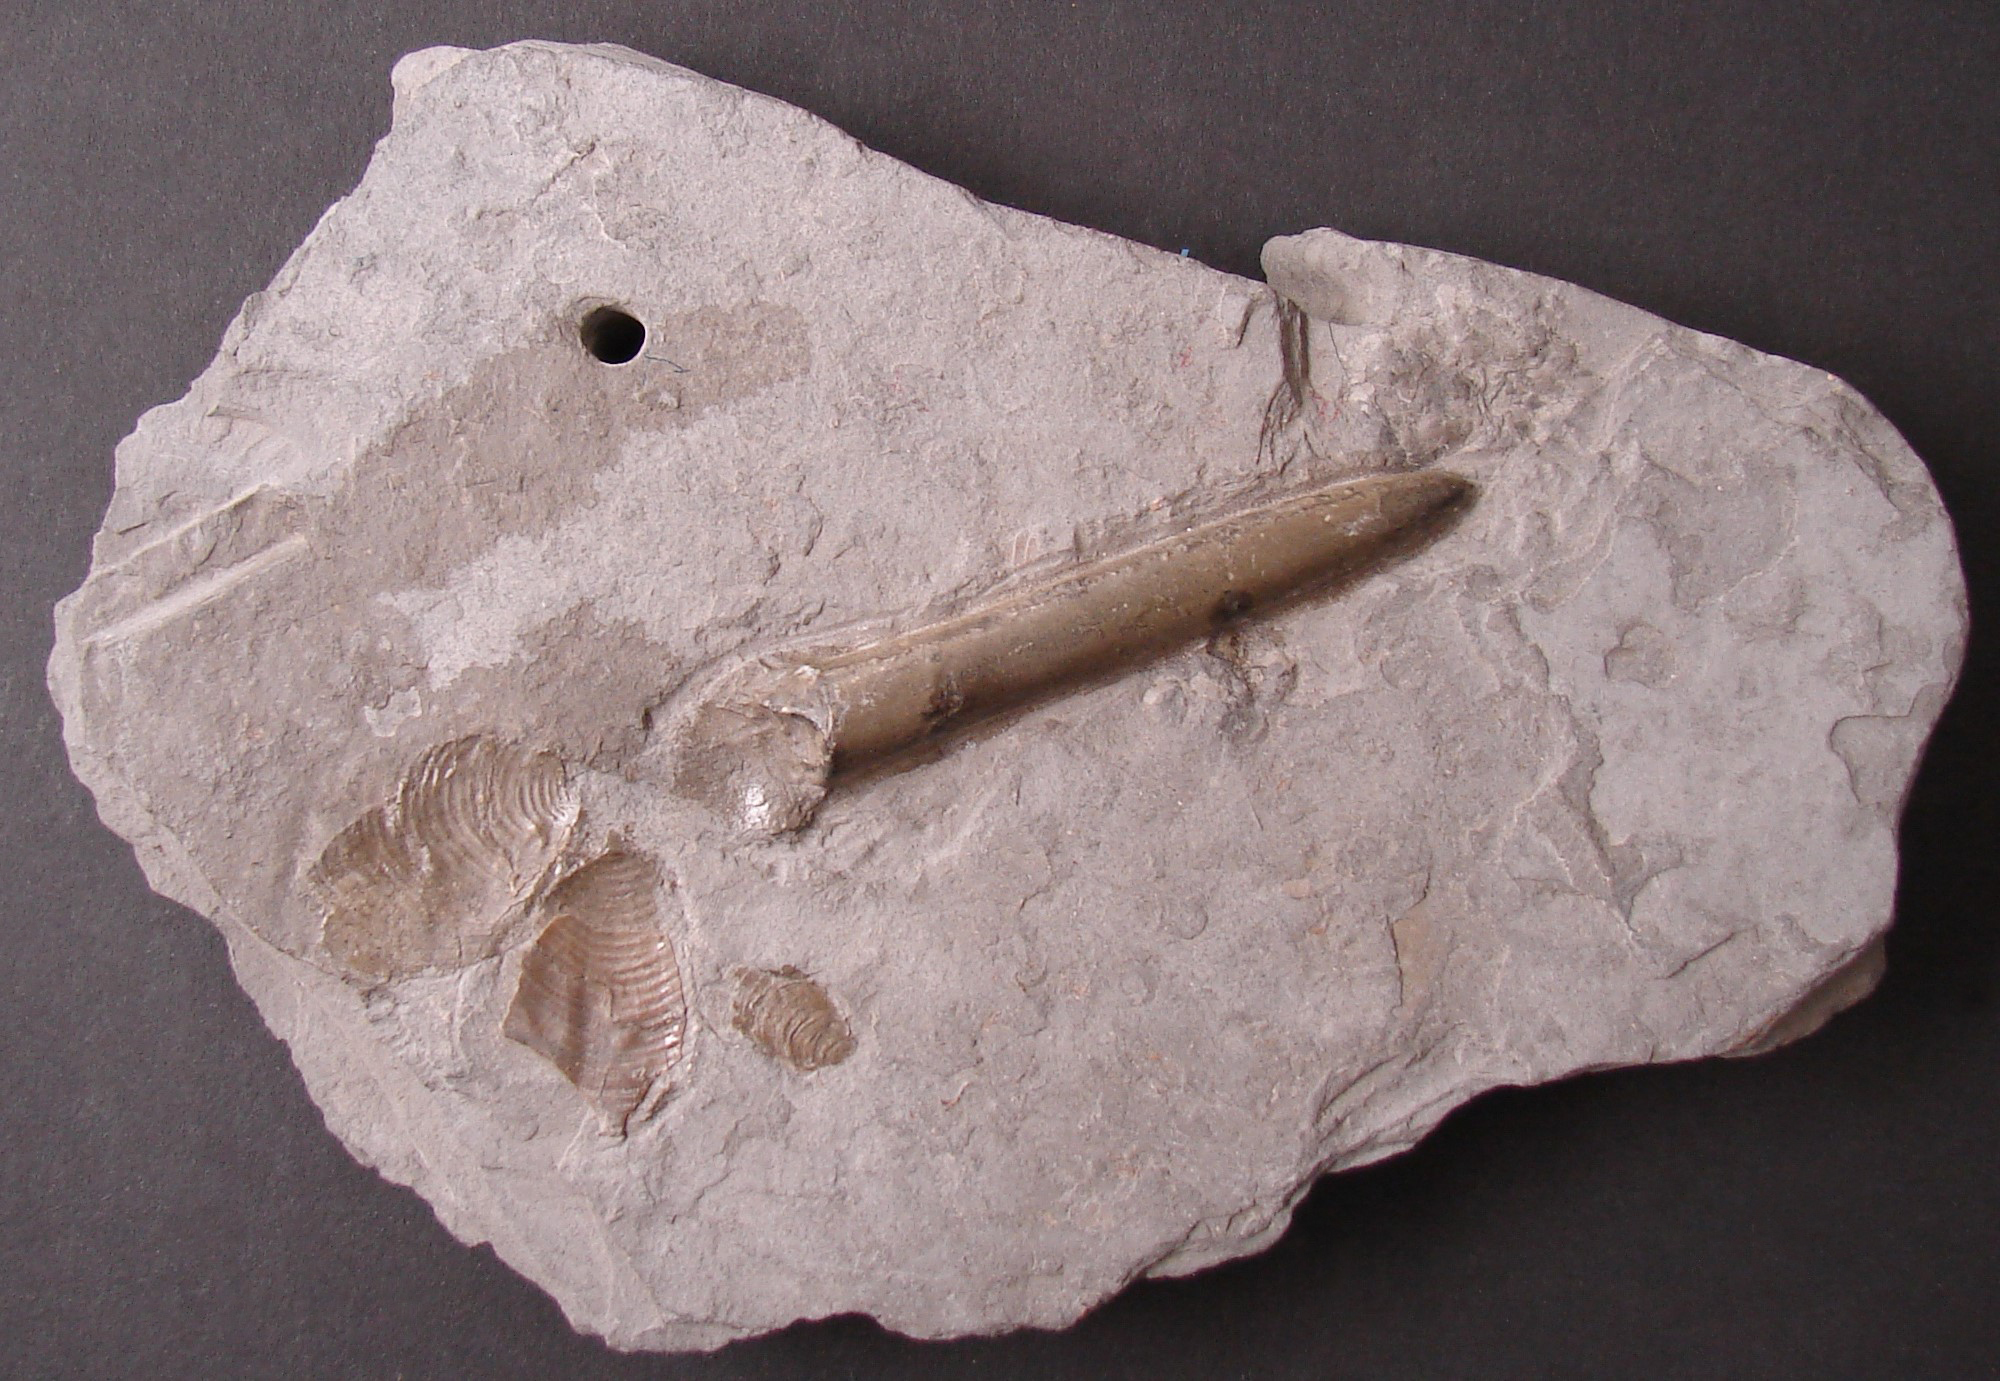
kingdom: Animalia
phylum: Mollusca
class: Cephalopoda
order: Belemnitida
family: Megateuthididae
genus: Cuspiteuthis
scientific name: Cuspiteuthis
